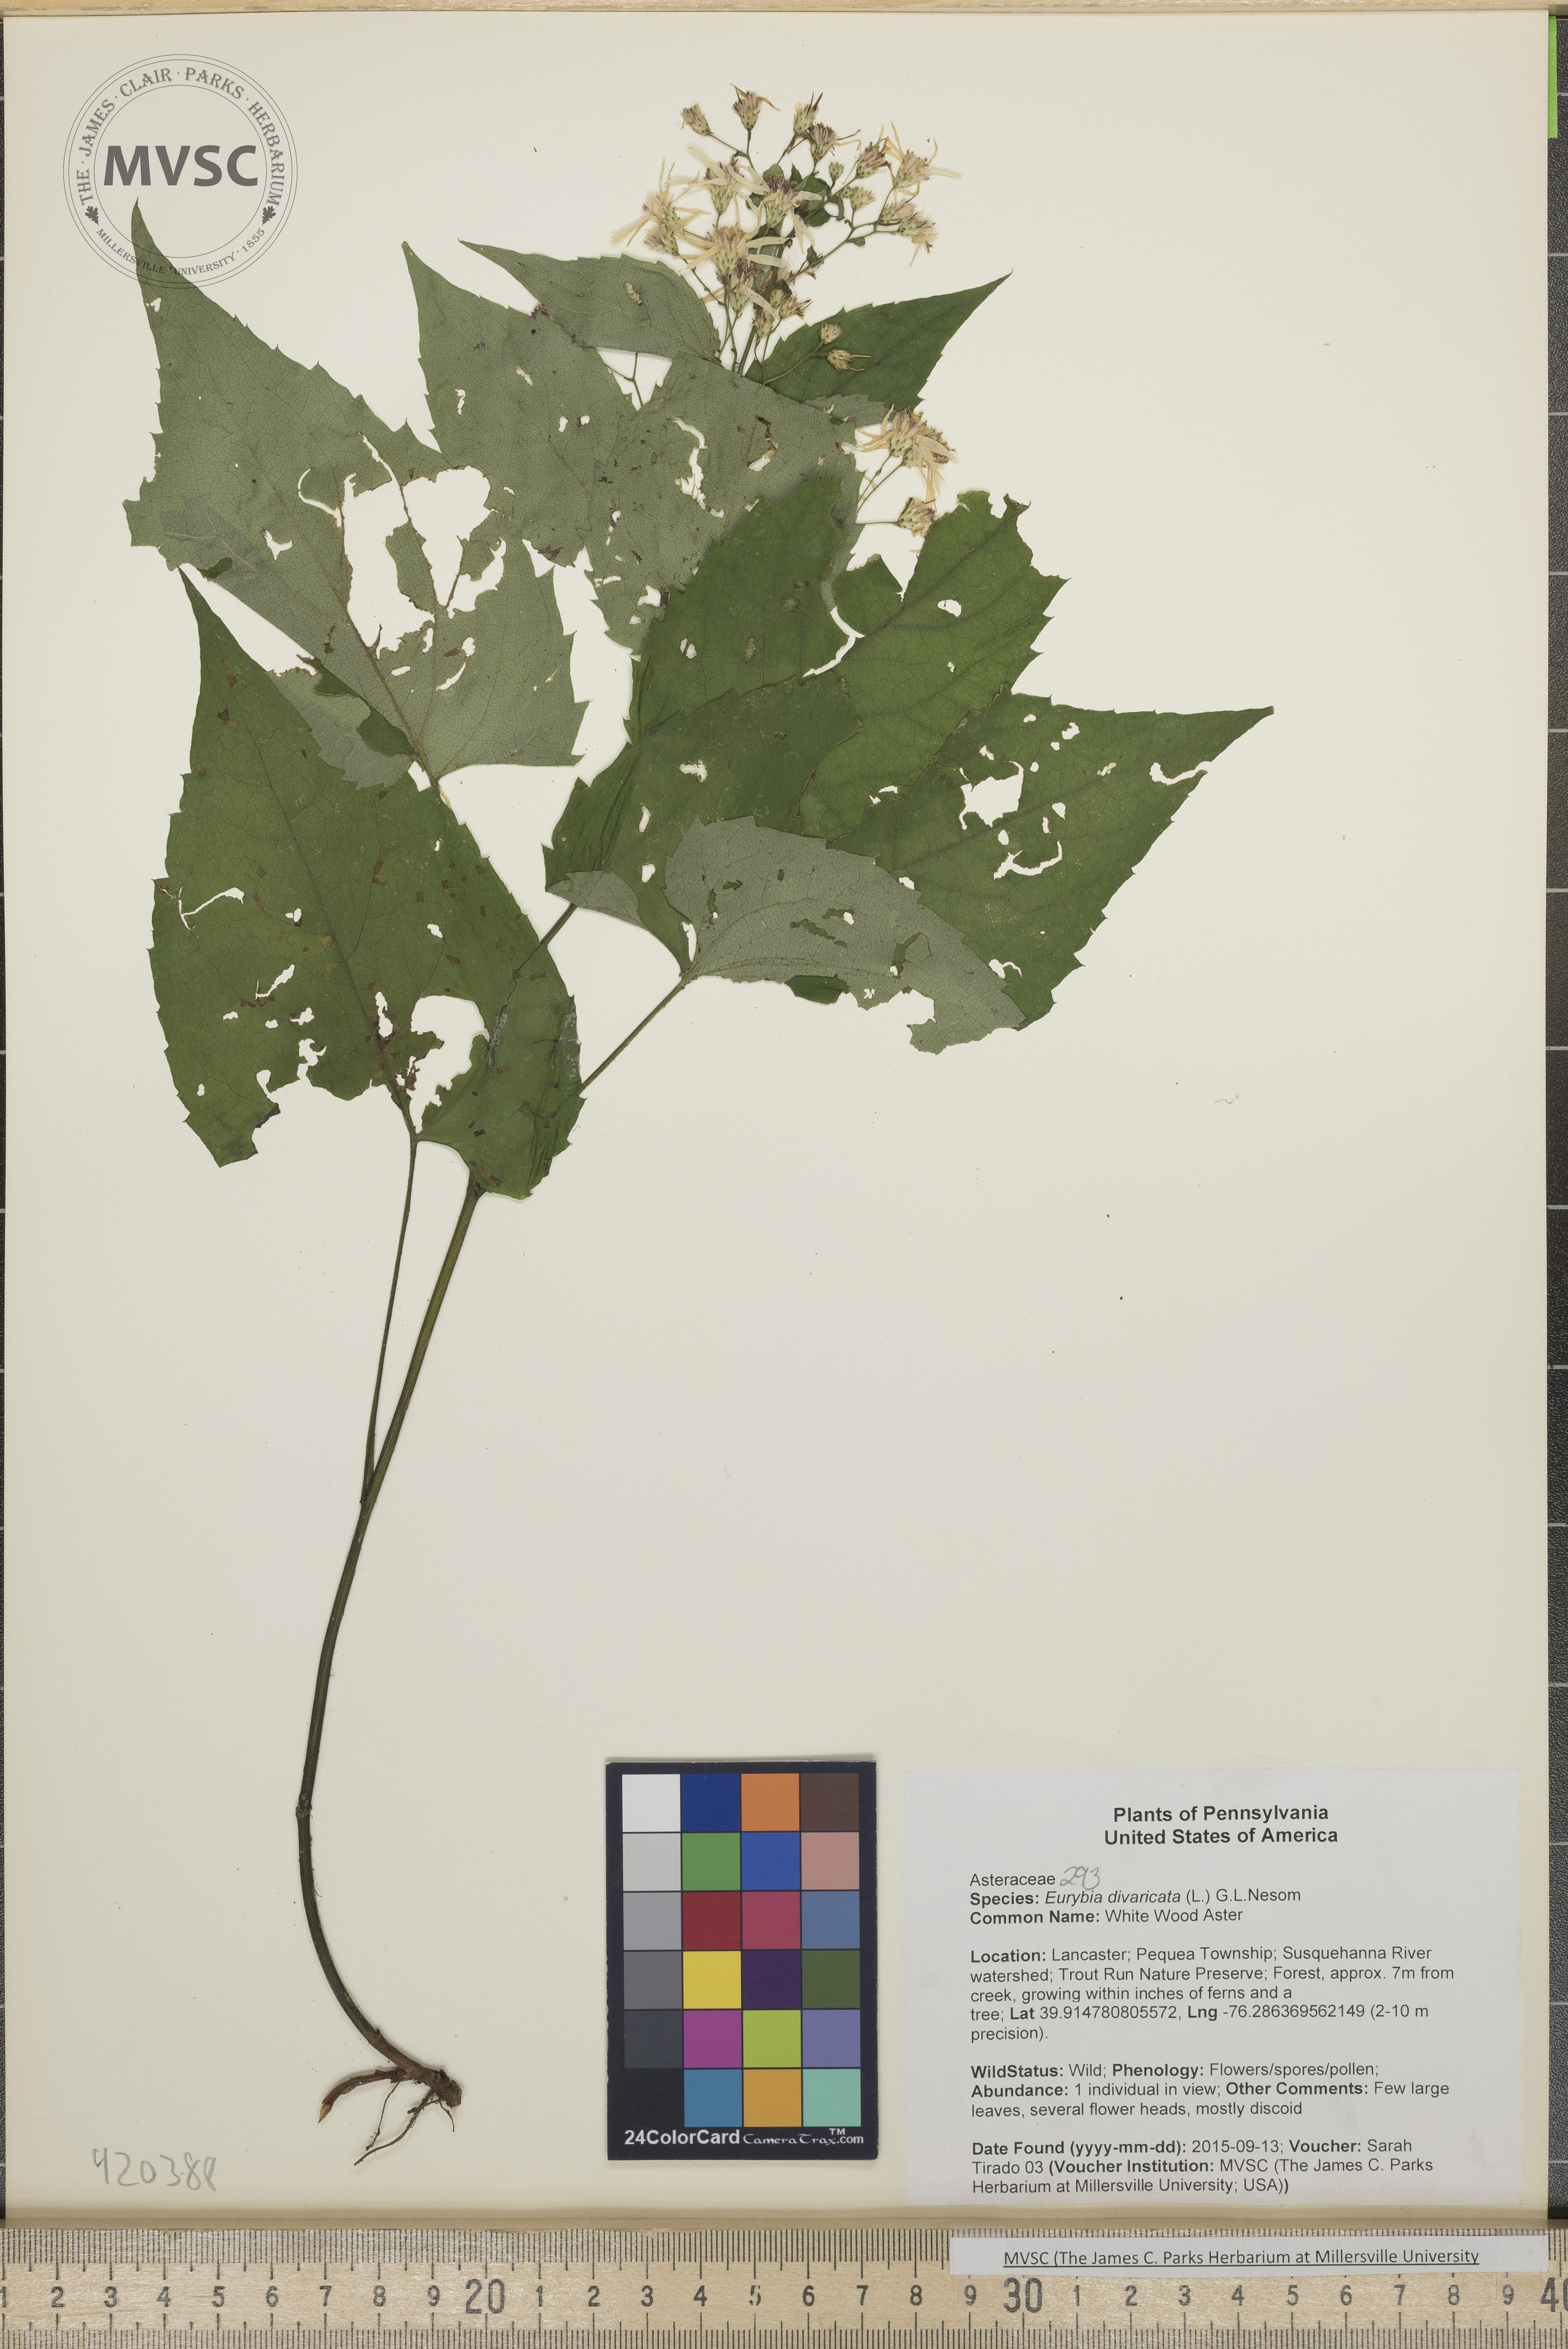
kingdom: Plantae
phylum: Tracheophyta
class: Magnoliopsida
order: Asterales
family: Asteraceae
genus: Eurybia
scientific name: Eurybia divaricata
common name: White Wood Aster
